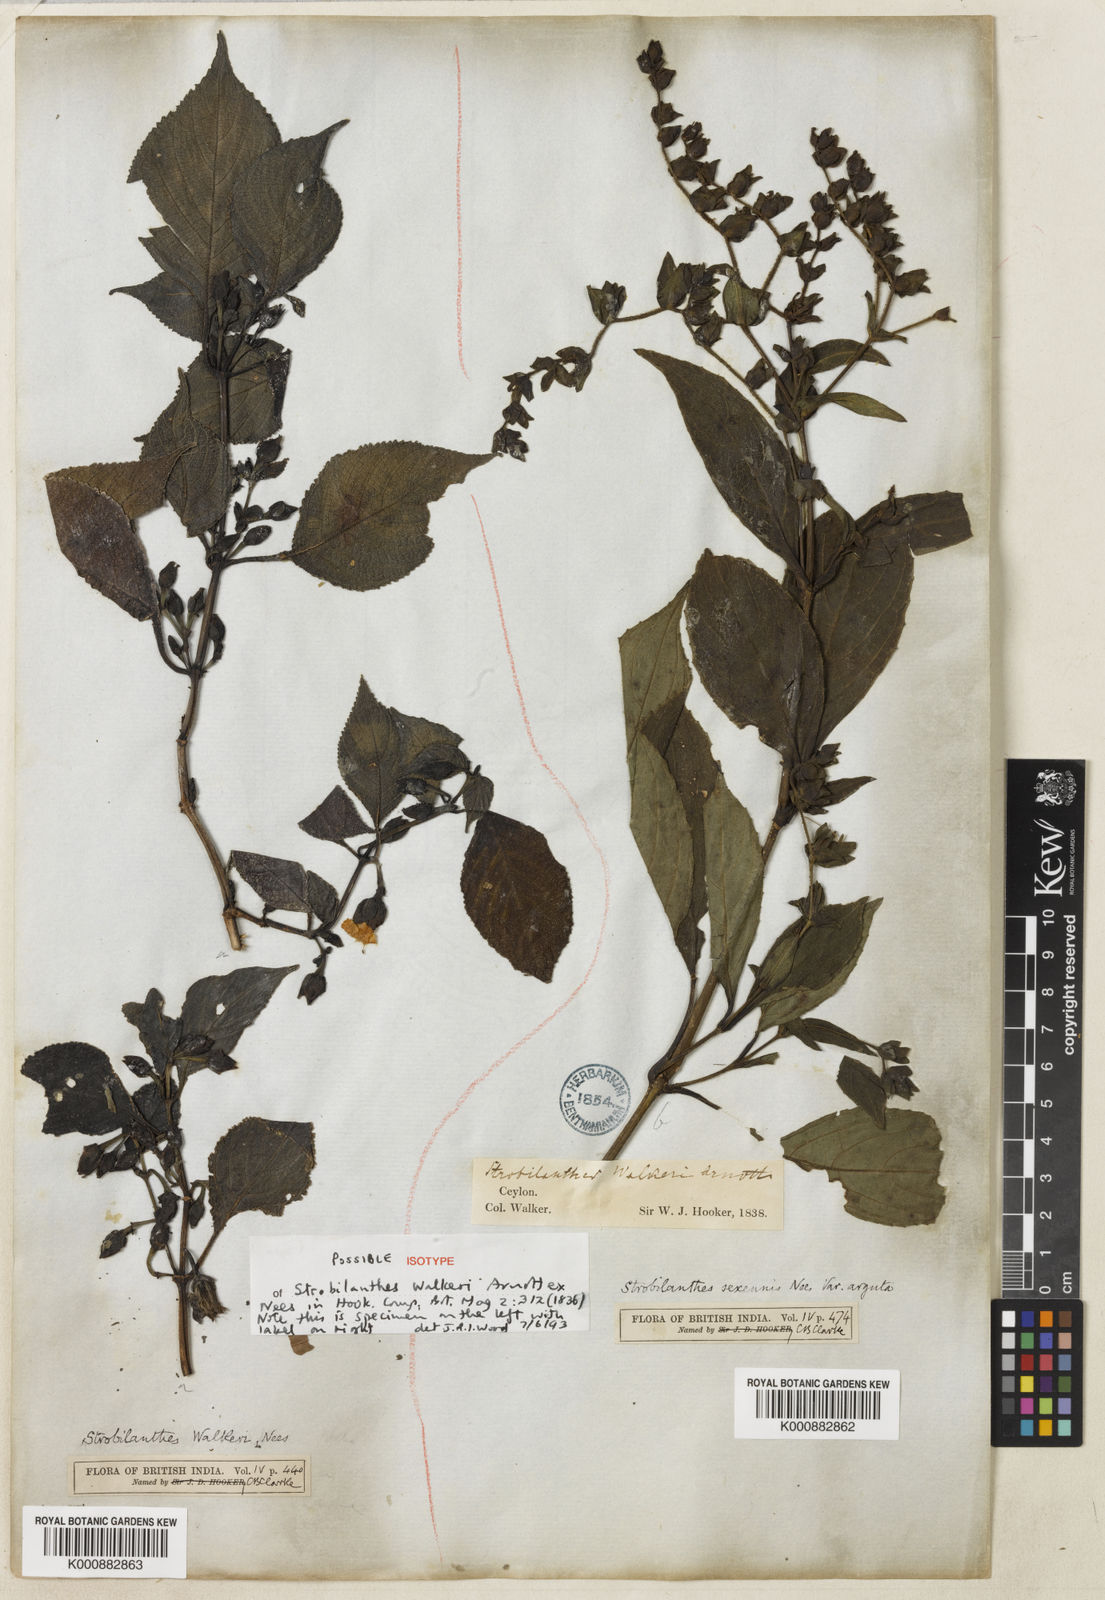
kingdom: Plantae
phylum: Tracheophyta
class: Magnoliopsida
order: Lamiales
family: Acanthaceae
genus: Strobilanthes
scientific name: Strobilanthes walkeri
